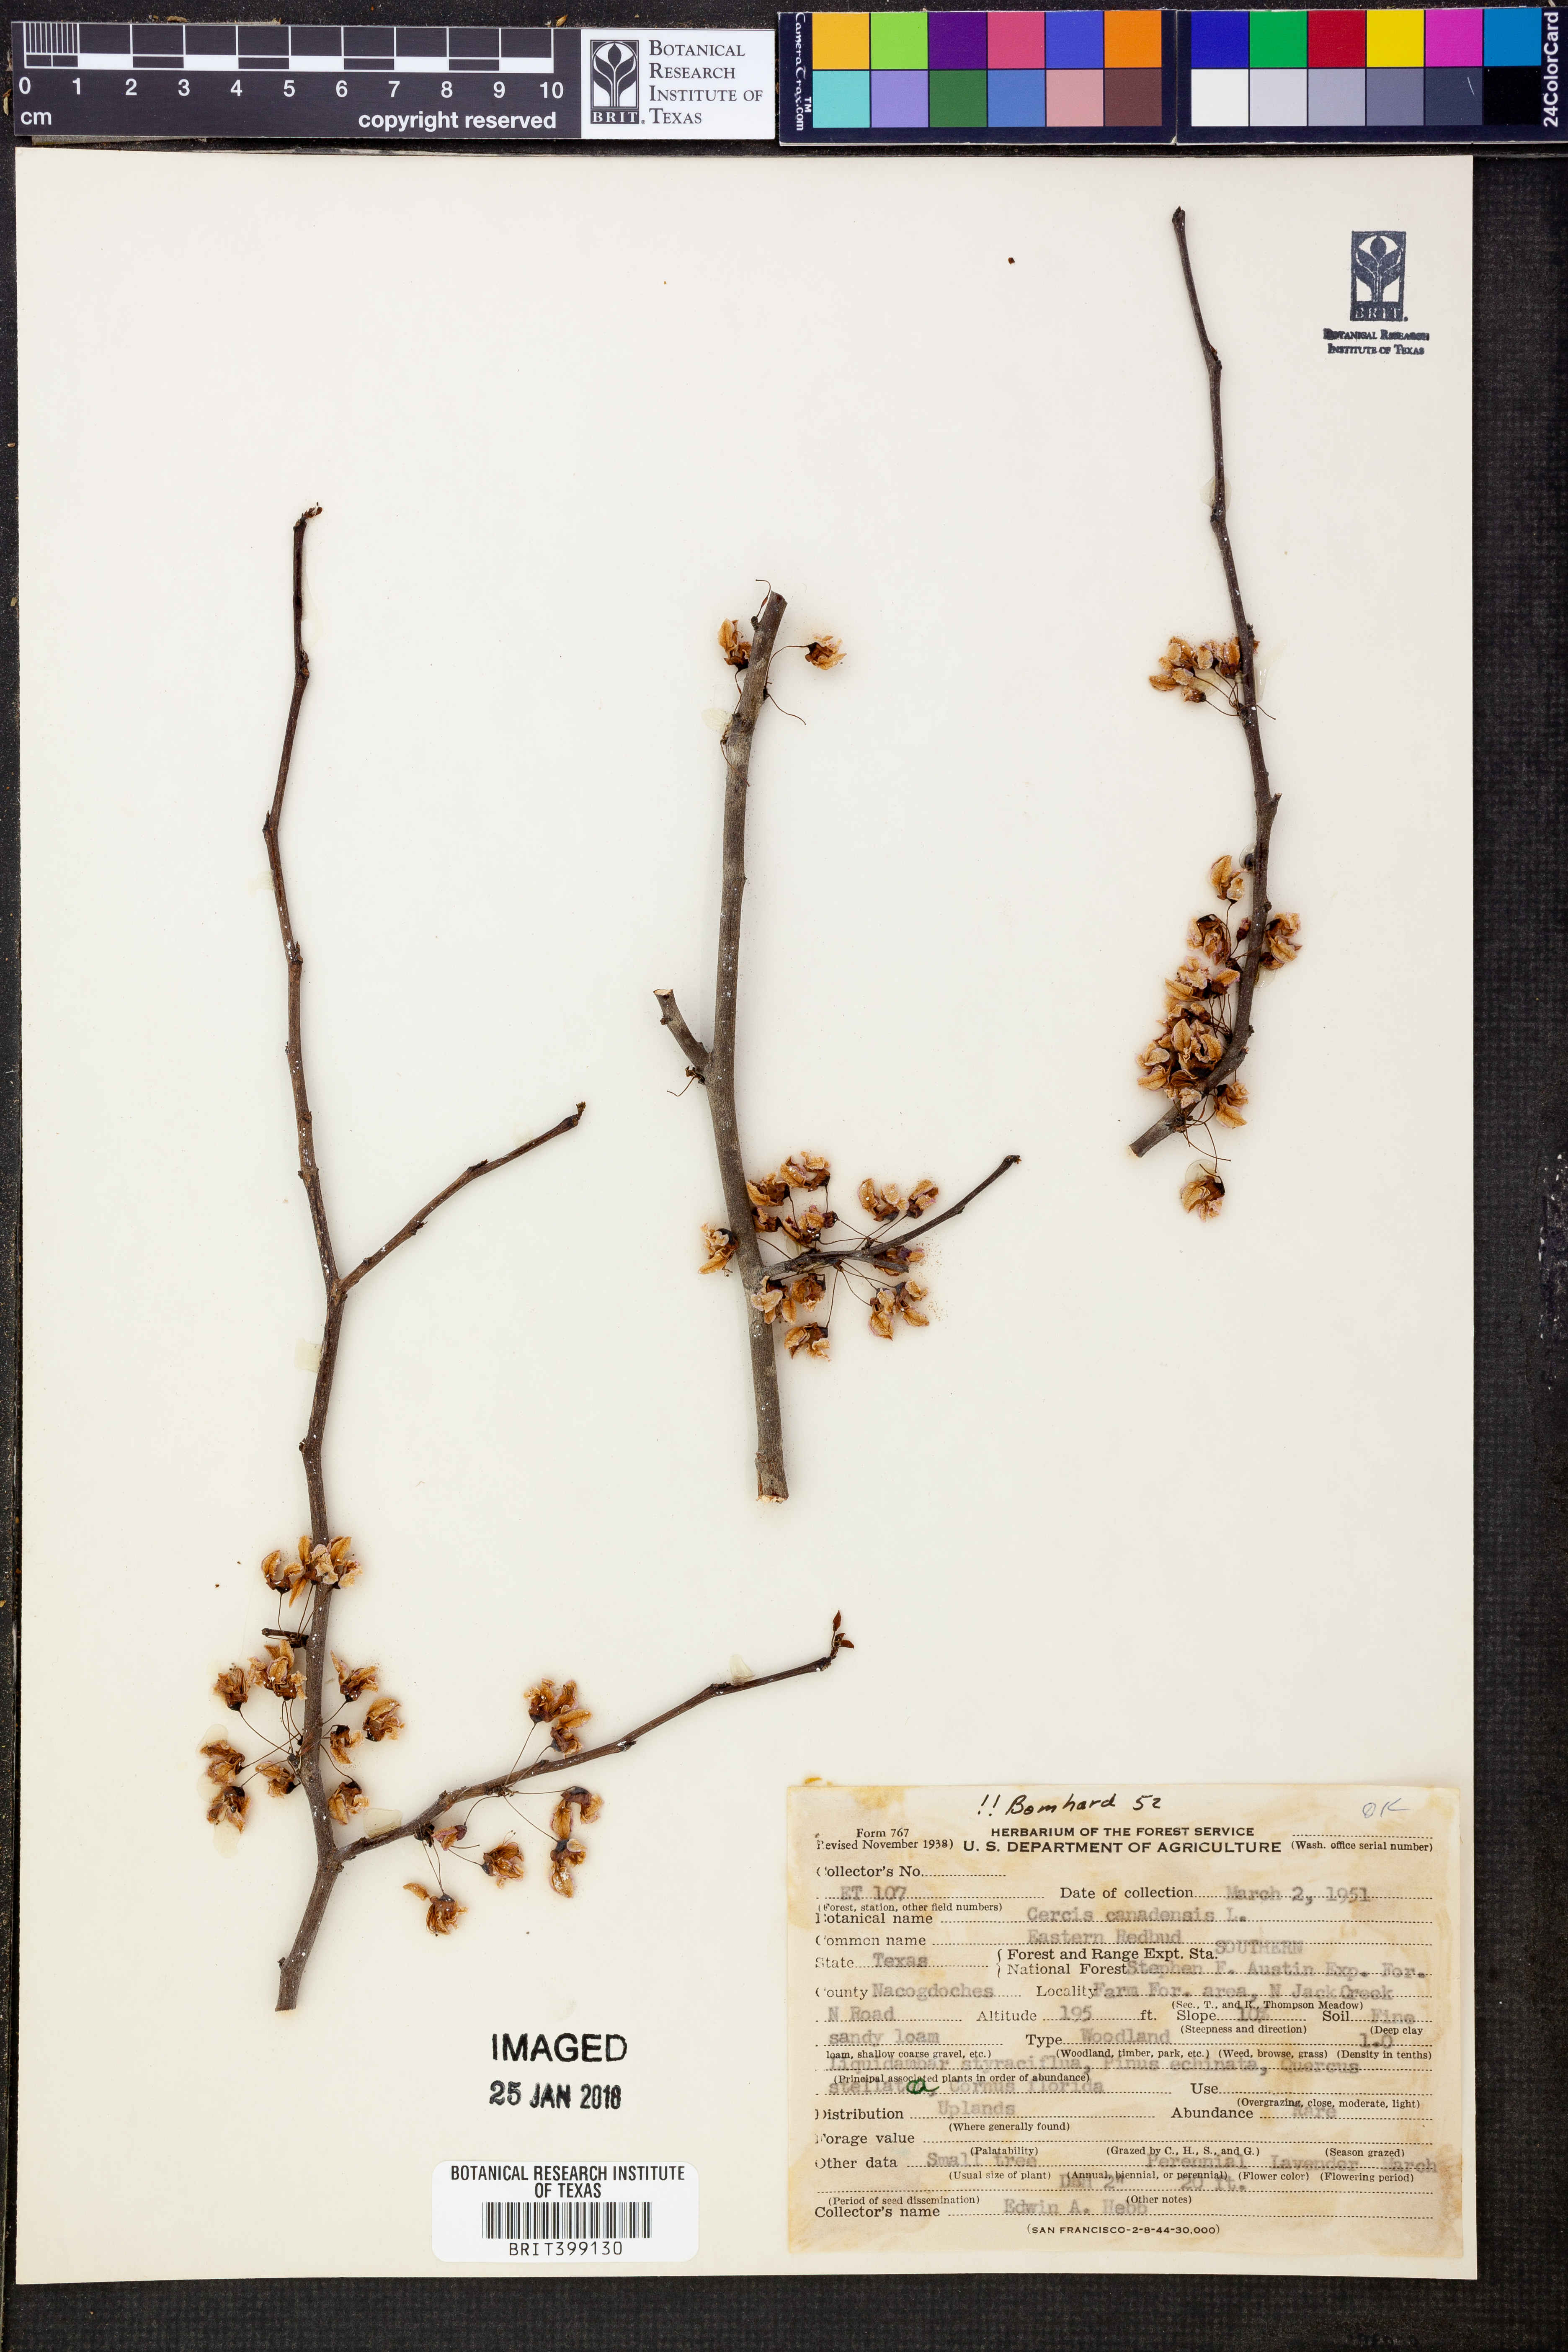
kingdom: Plantae
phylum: Tracheophyta
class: Magnoliopsida
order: Fabales
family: Fabaceae
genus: Cercis
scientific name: Cercis canadensis
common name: Eastern redbud
